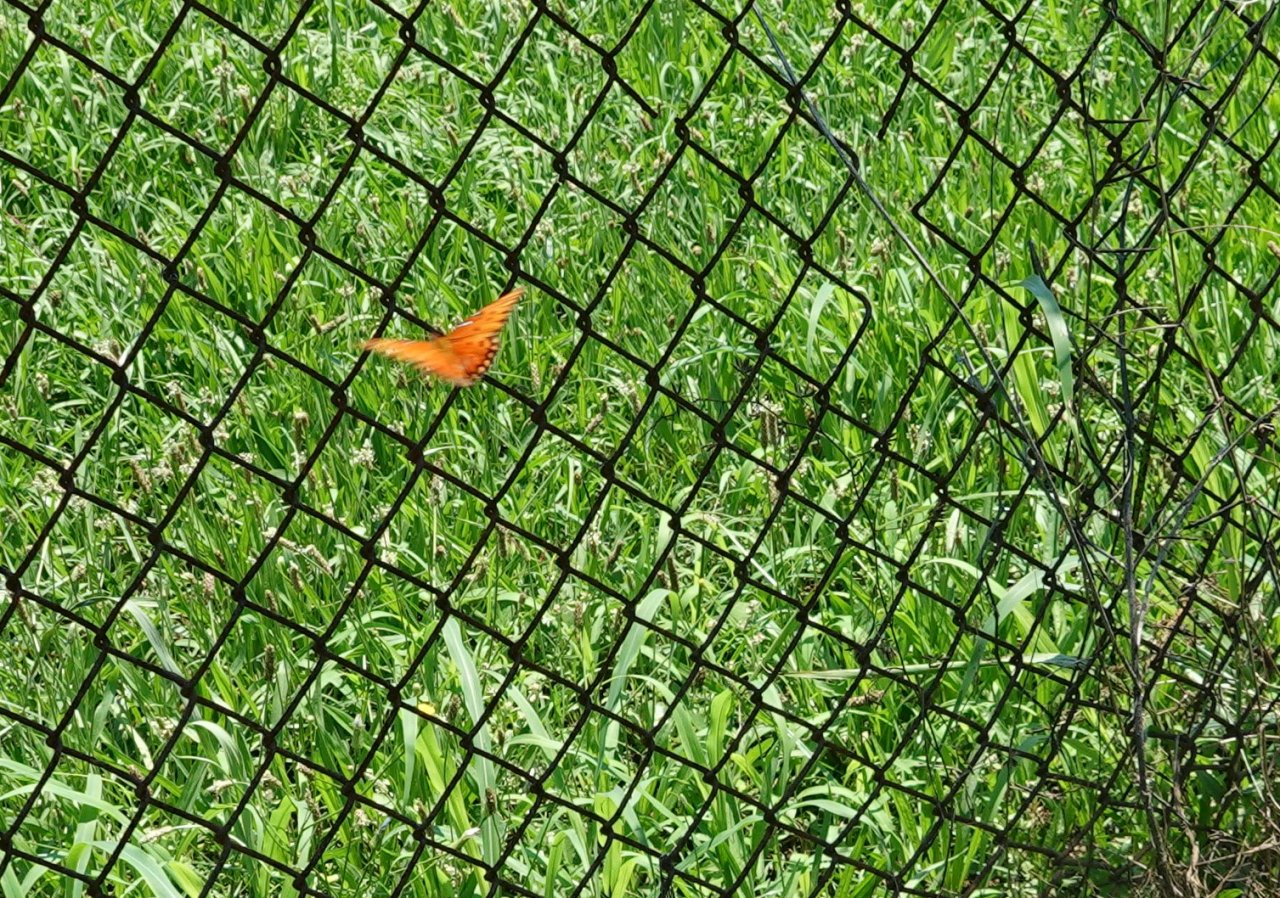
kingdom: Animalia
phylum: Arthropoda
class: Insecta
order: Lepidoptera
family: Nymphalidae
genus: Dione
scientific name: Dione vanillae
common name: Gulf Fritillary
